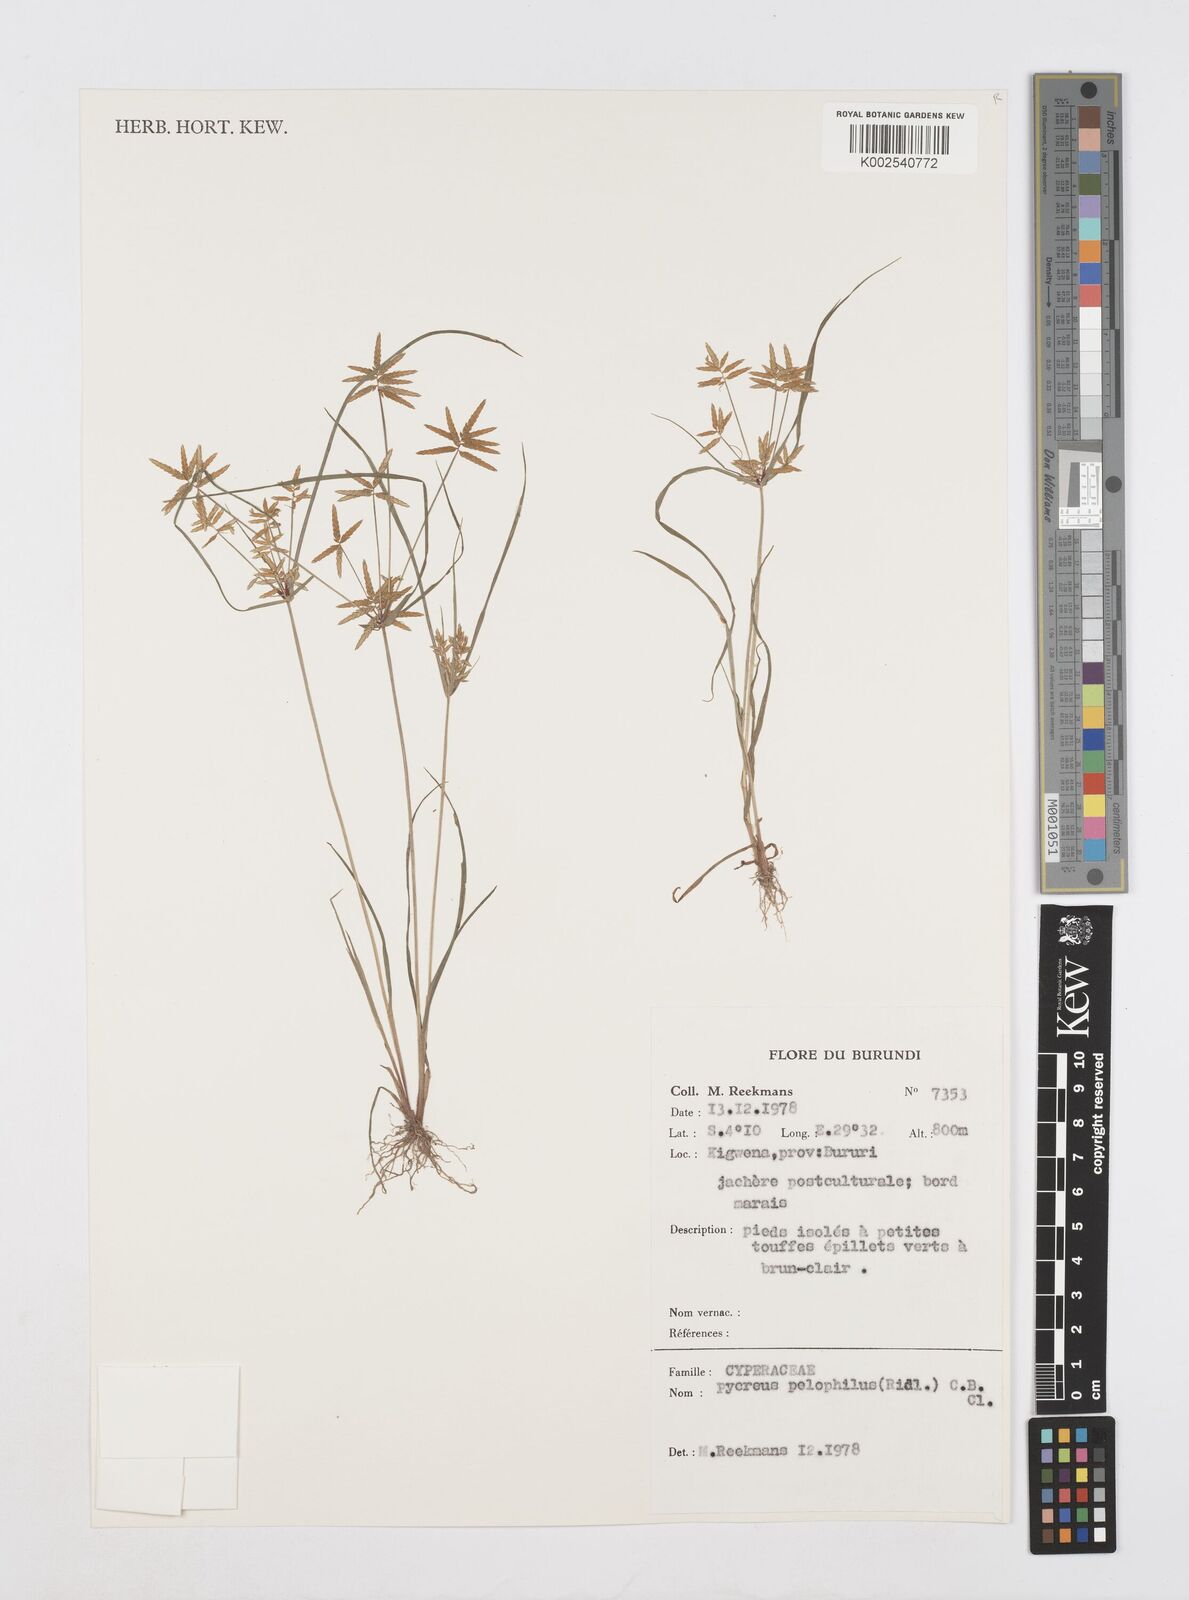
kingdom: Plantae
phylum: Tracheophyta
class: Liliopsida
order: Poales
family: Cyperaceae
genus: Cyperus
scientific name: Cyperus pelophilus
